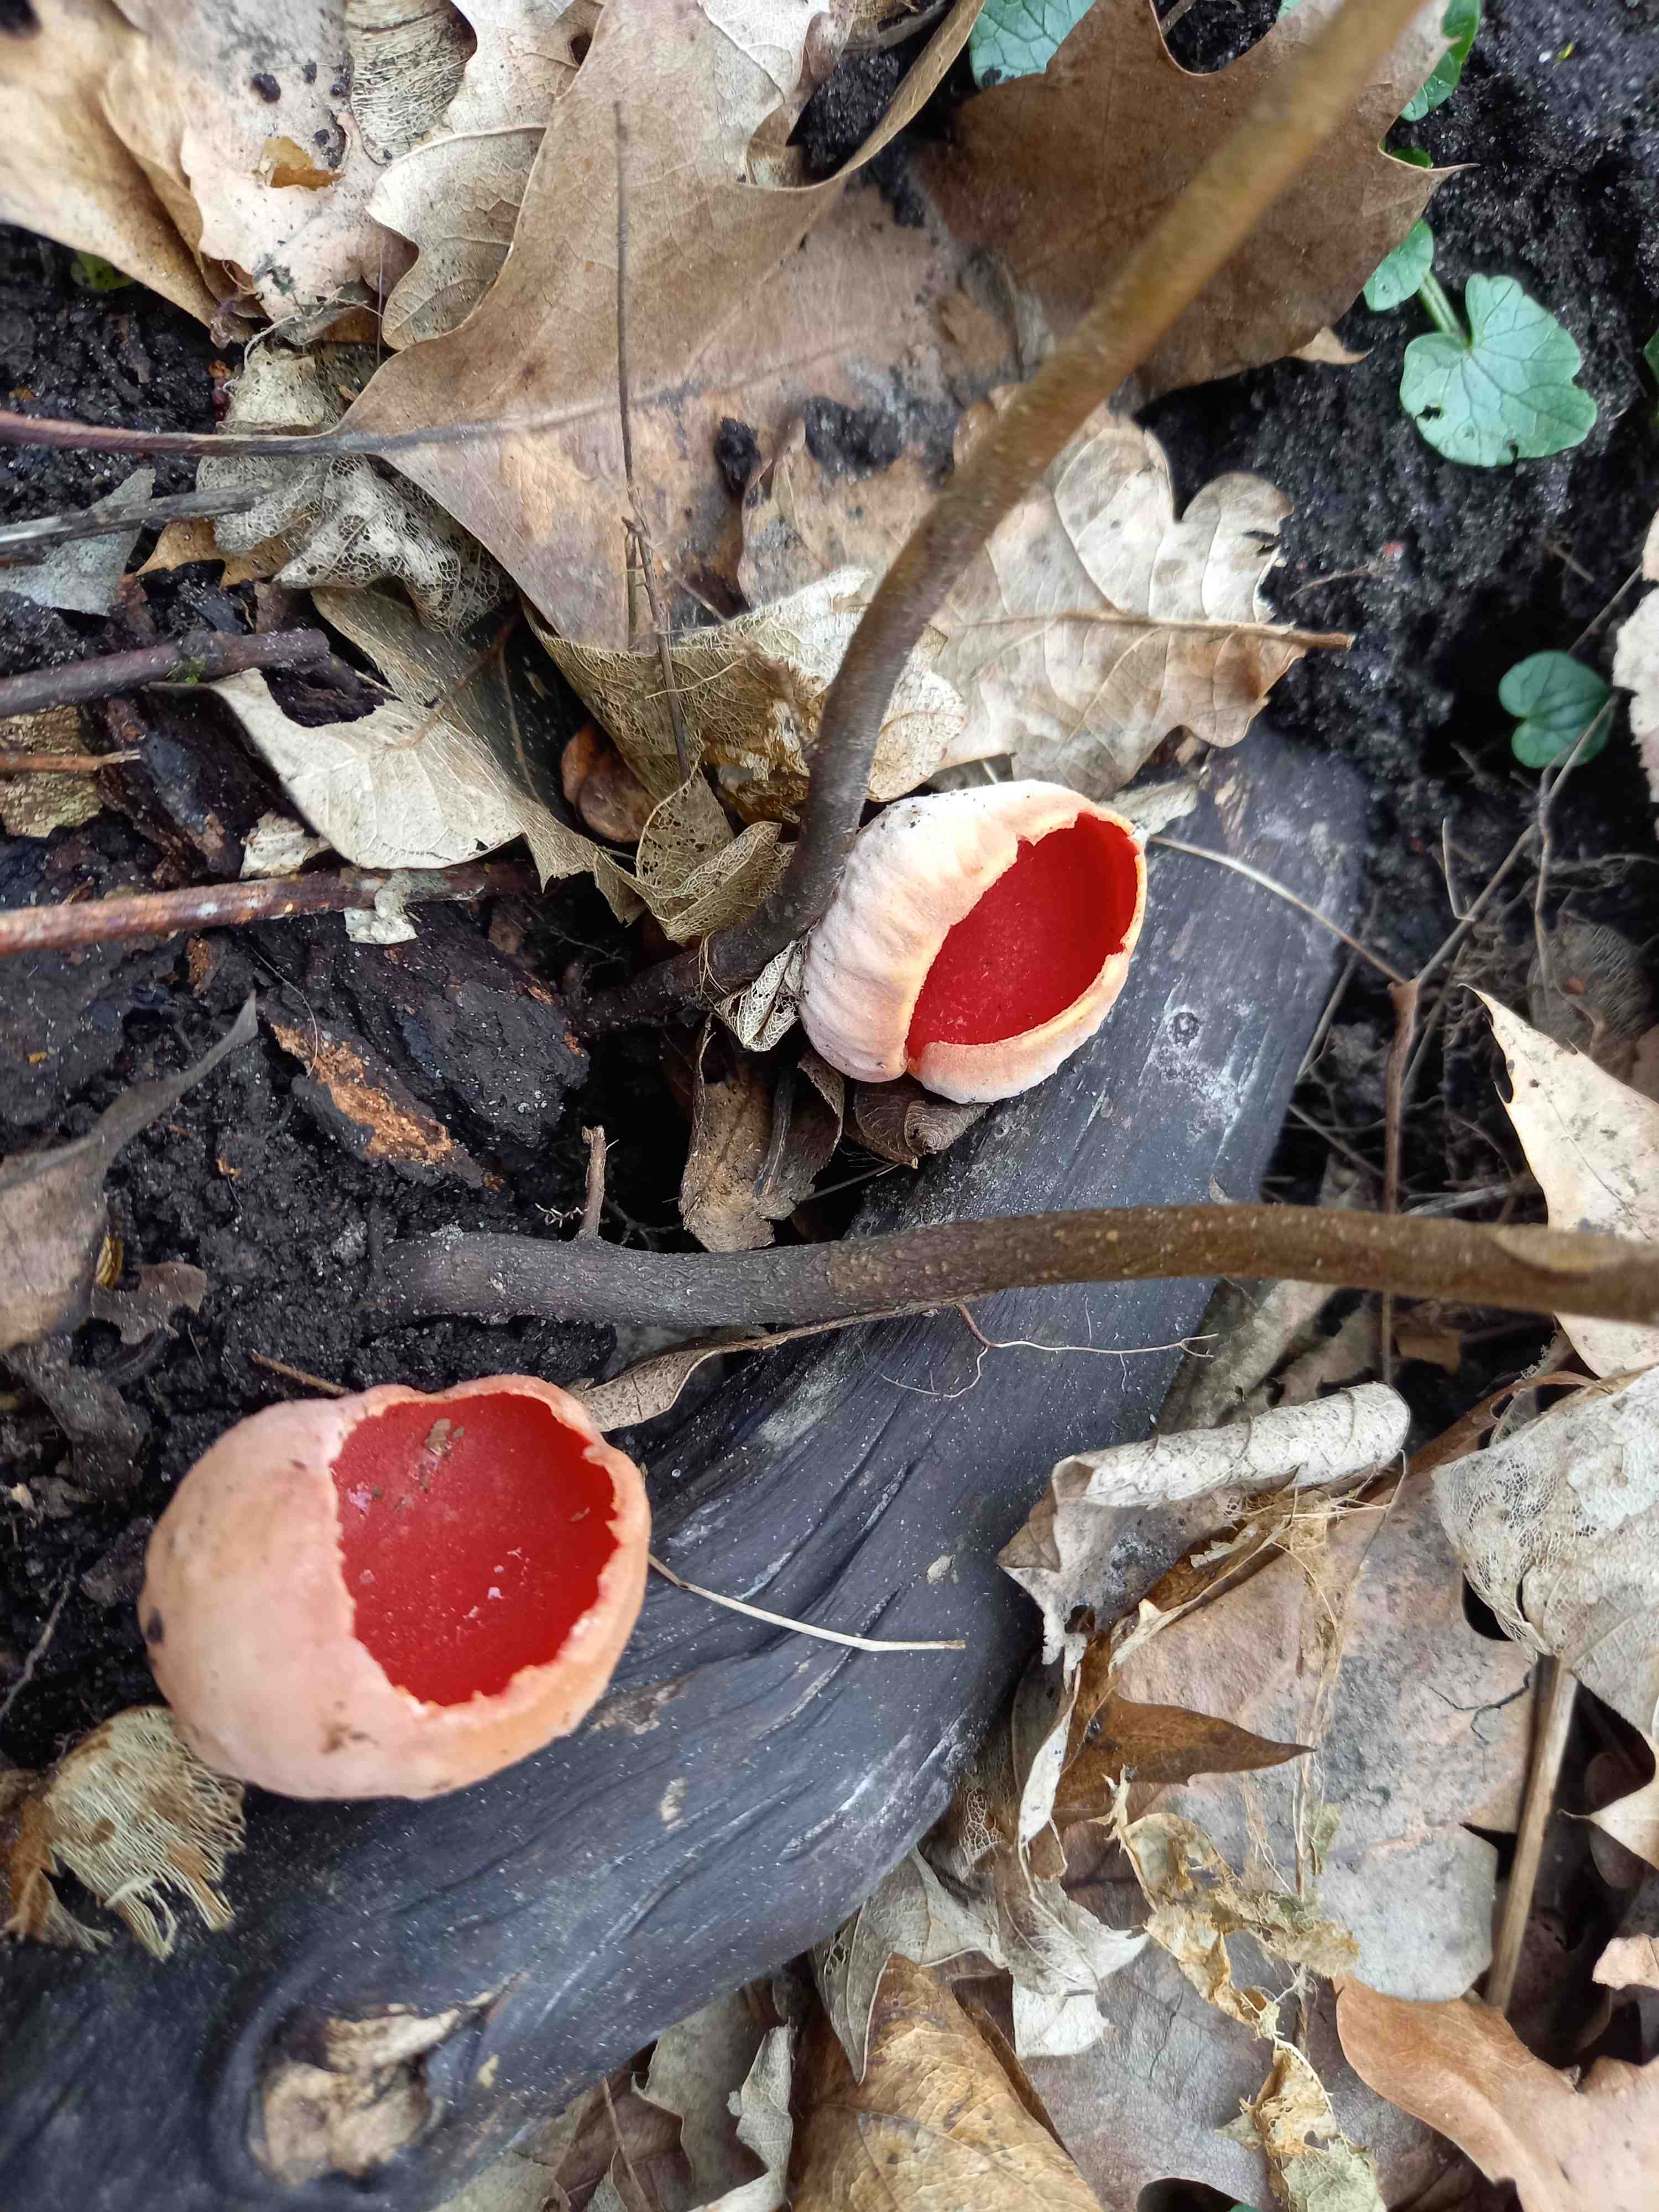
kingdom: Fungi
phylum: Ascomycota
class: Pezizomycetes
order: Pezizales
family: Sarcoscyphaceae
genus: Sarcoscypha
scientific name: Sarcoscypha austriaca
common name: krølhåret pragtbæger
